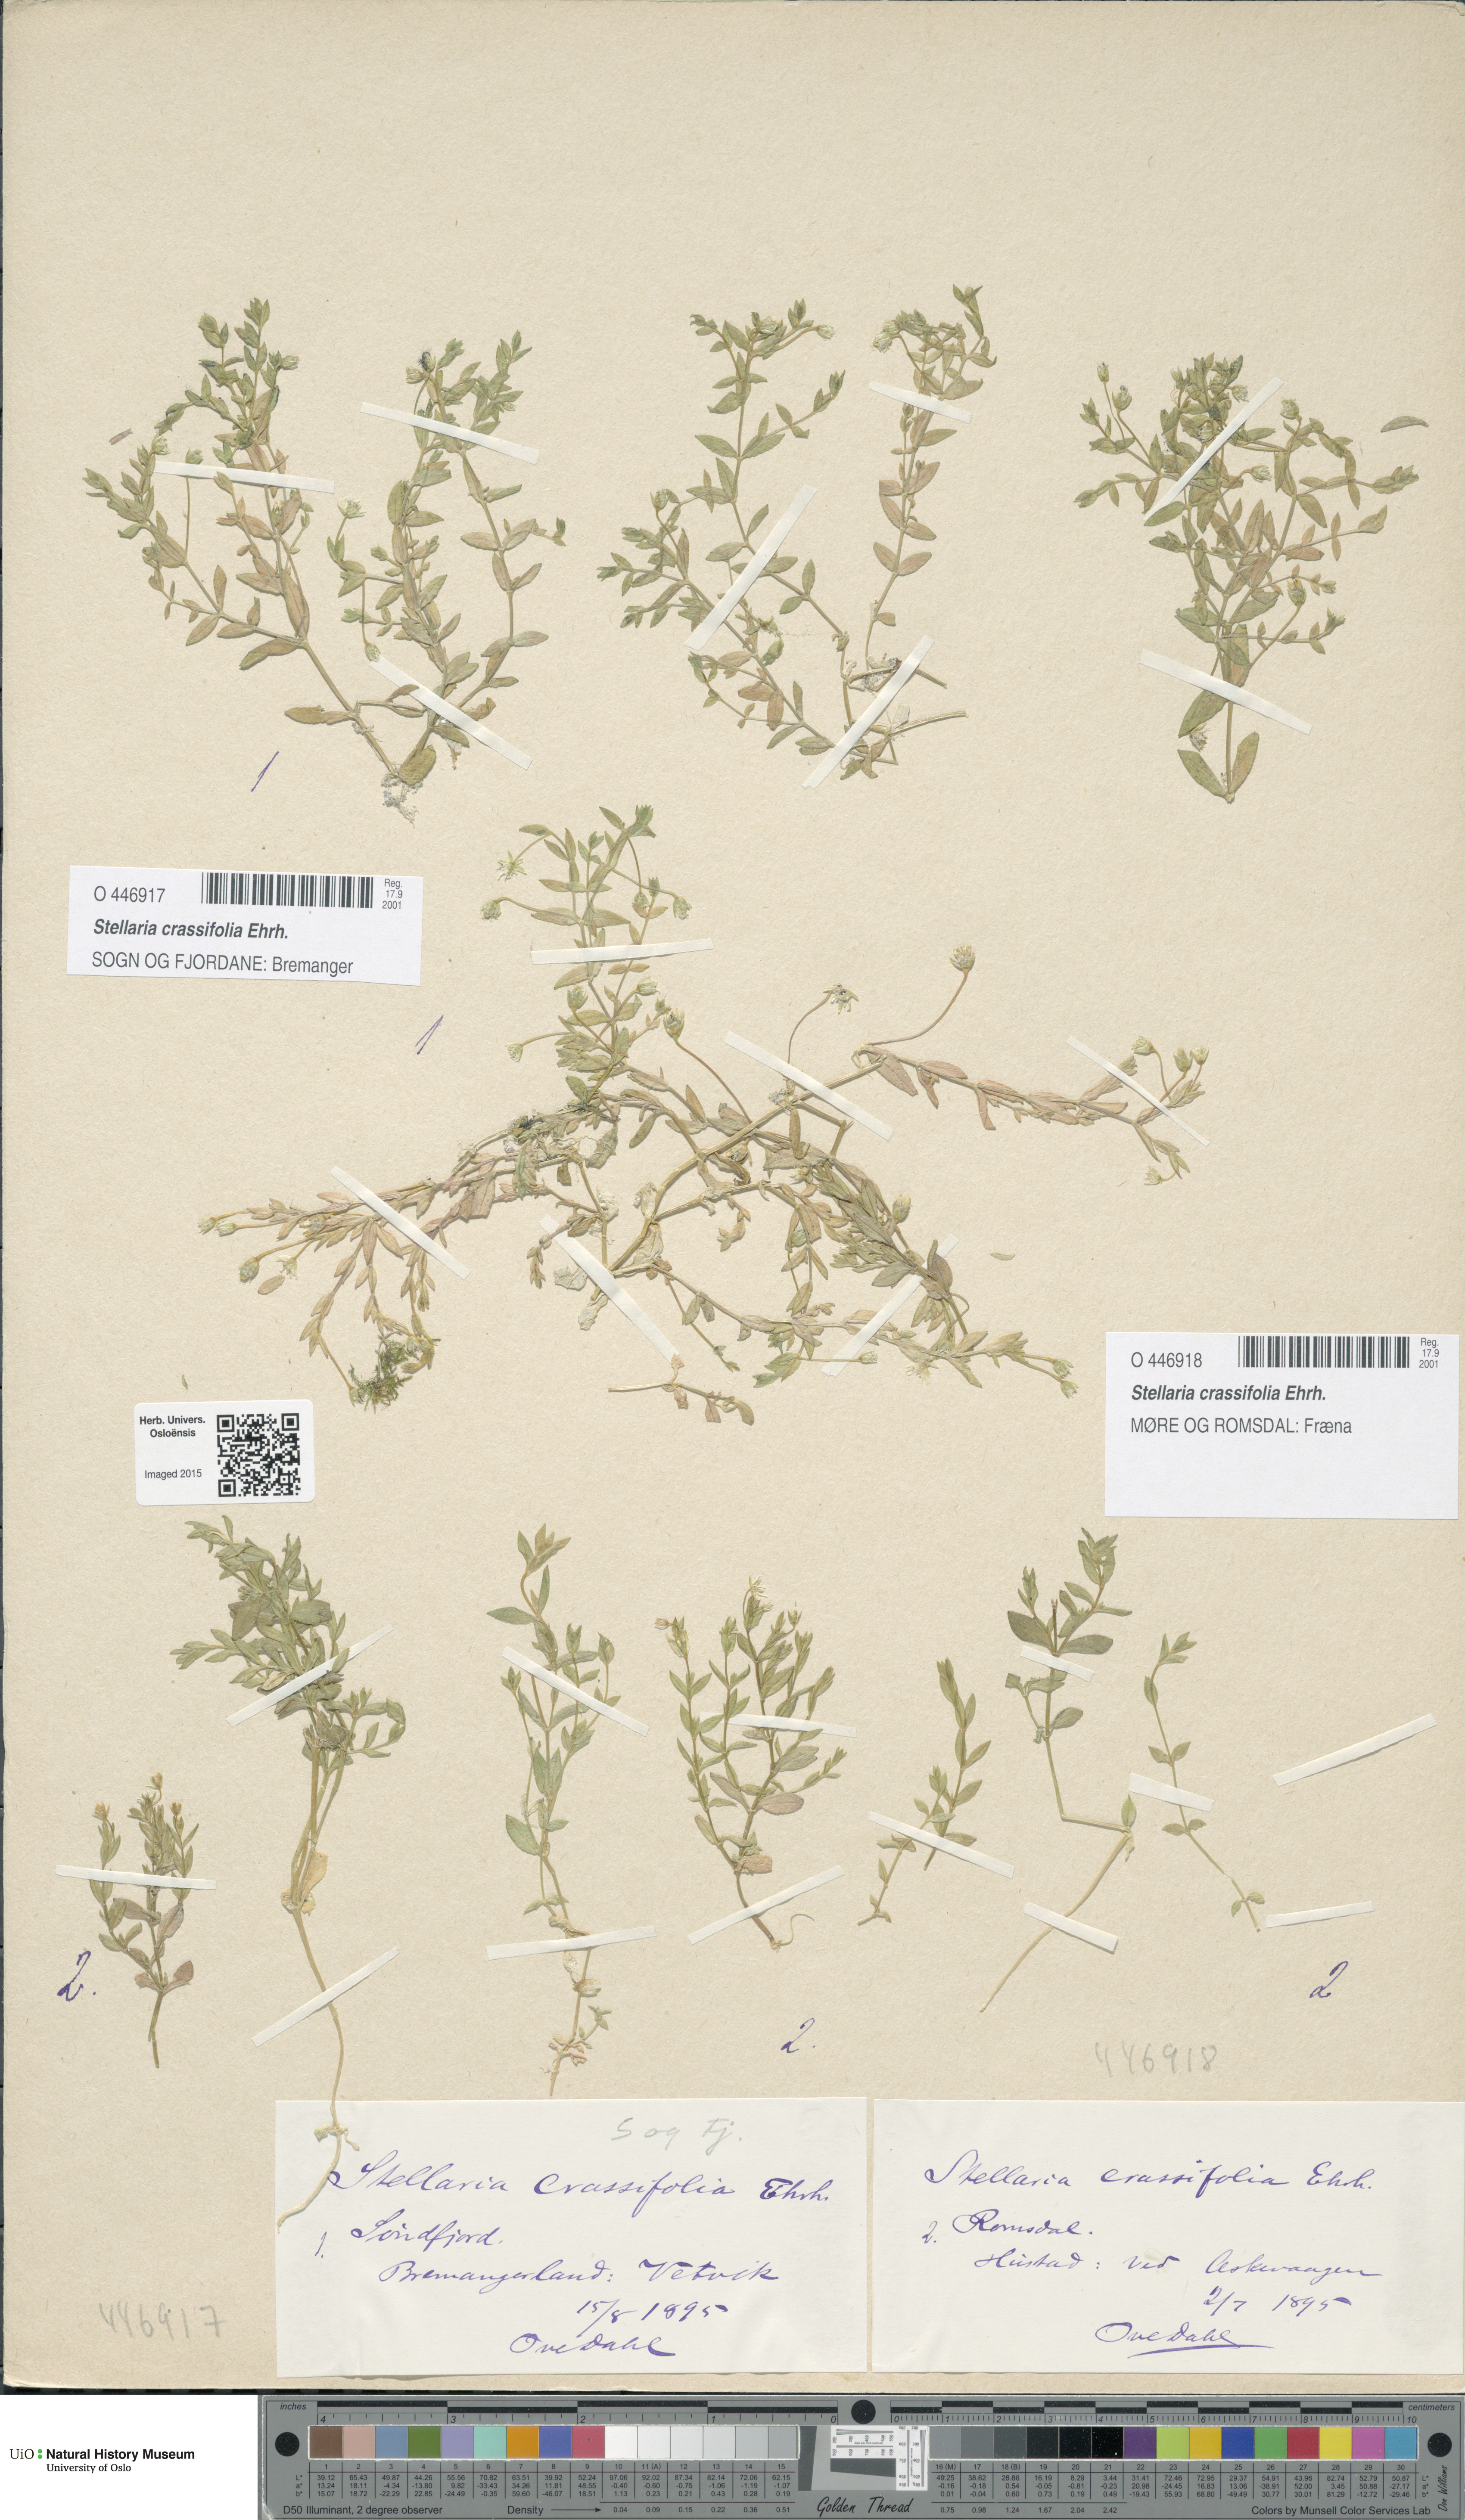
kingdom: Plantae
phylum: Tracheophyta
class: Magnoliopsida
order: Caryophyllales
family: Caryophyllaceae
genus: Stellaria
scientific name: Stellaria crassifolia
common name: Fleshy starwort
